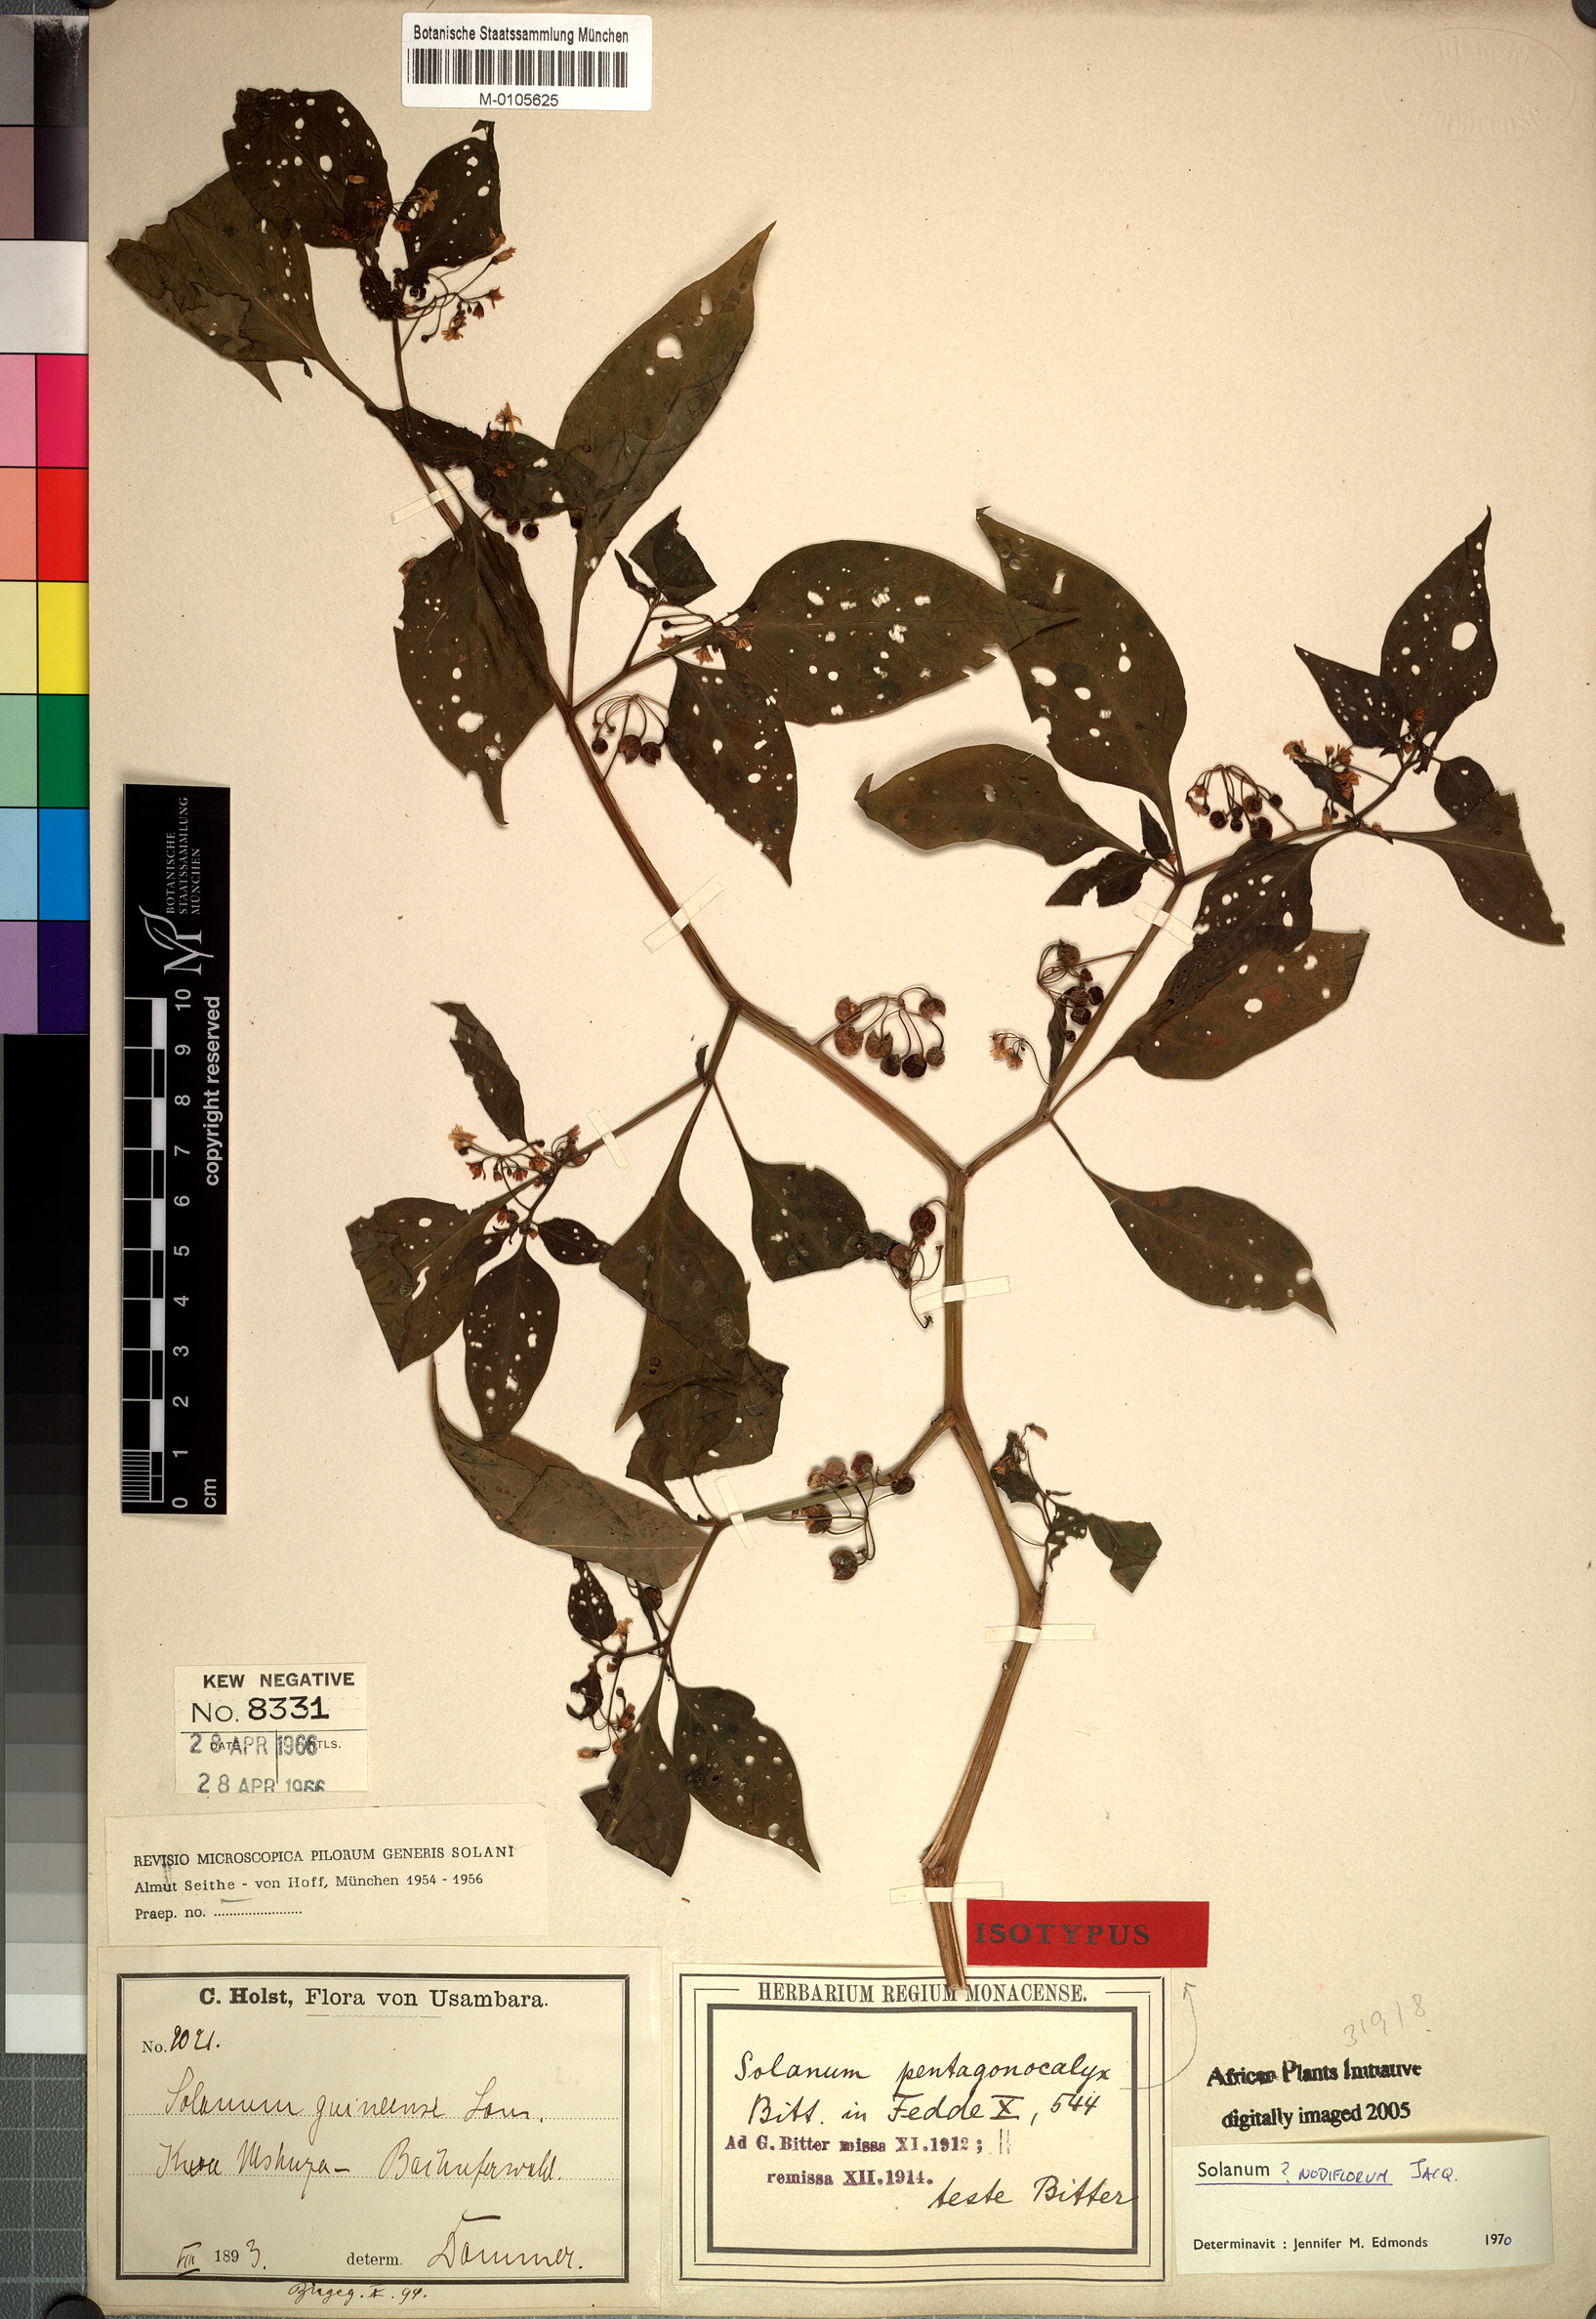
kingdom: Plantae
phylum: Tracheophyta
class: Magnoliopsida
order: Solanales
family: Solanaceae
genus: Solanum
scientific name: Solanum americanum
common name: American black nightshade
